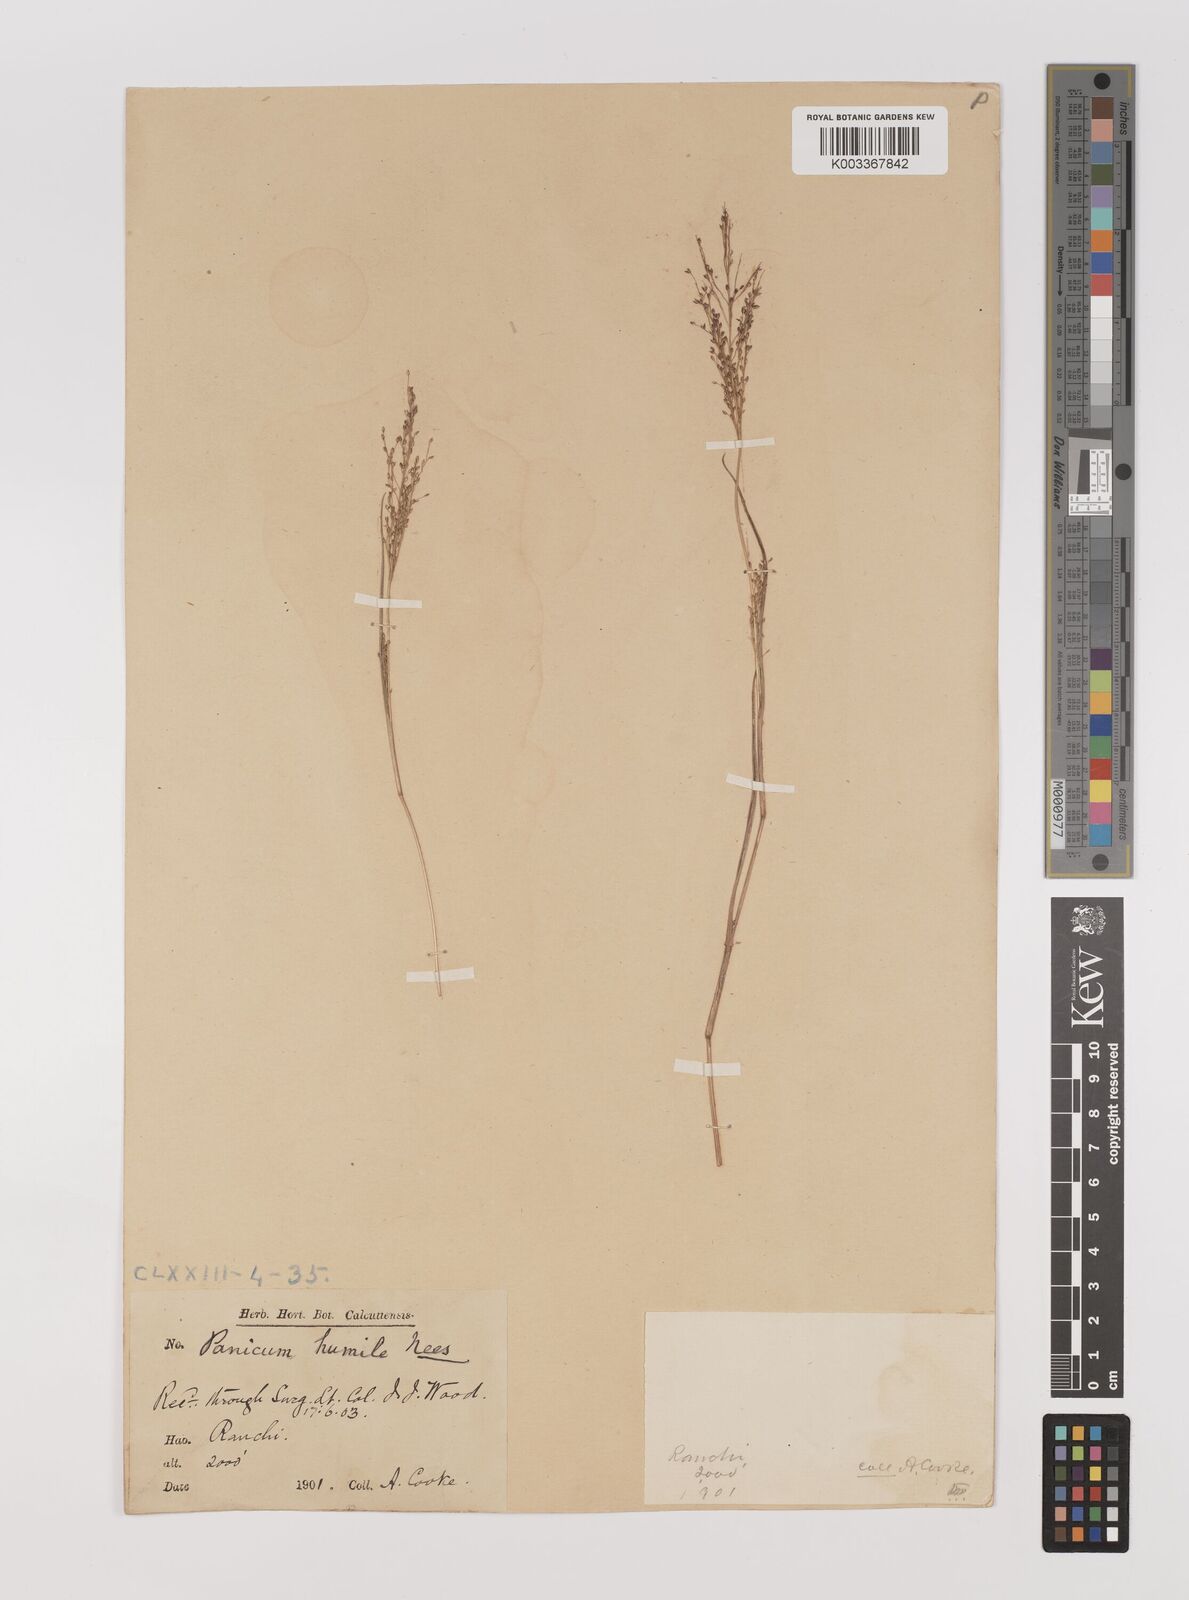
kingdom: Plantae
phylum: Tracheophyta
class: Liliopsida
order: Poales
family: Poaceae
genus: Panicum
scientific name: Panicum humile
